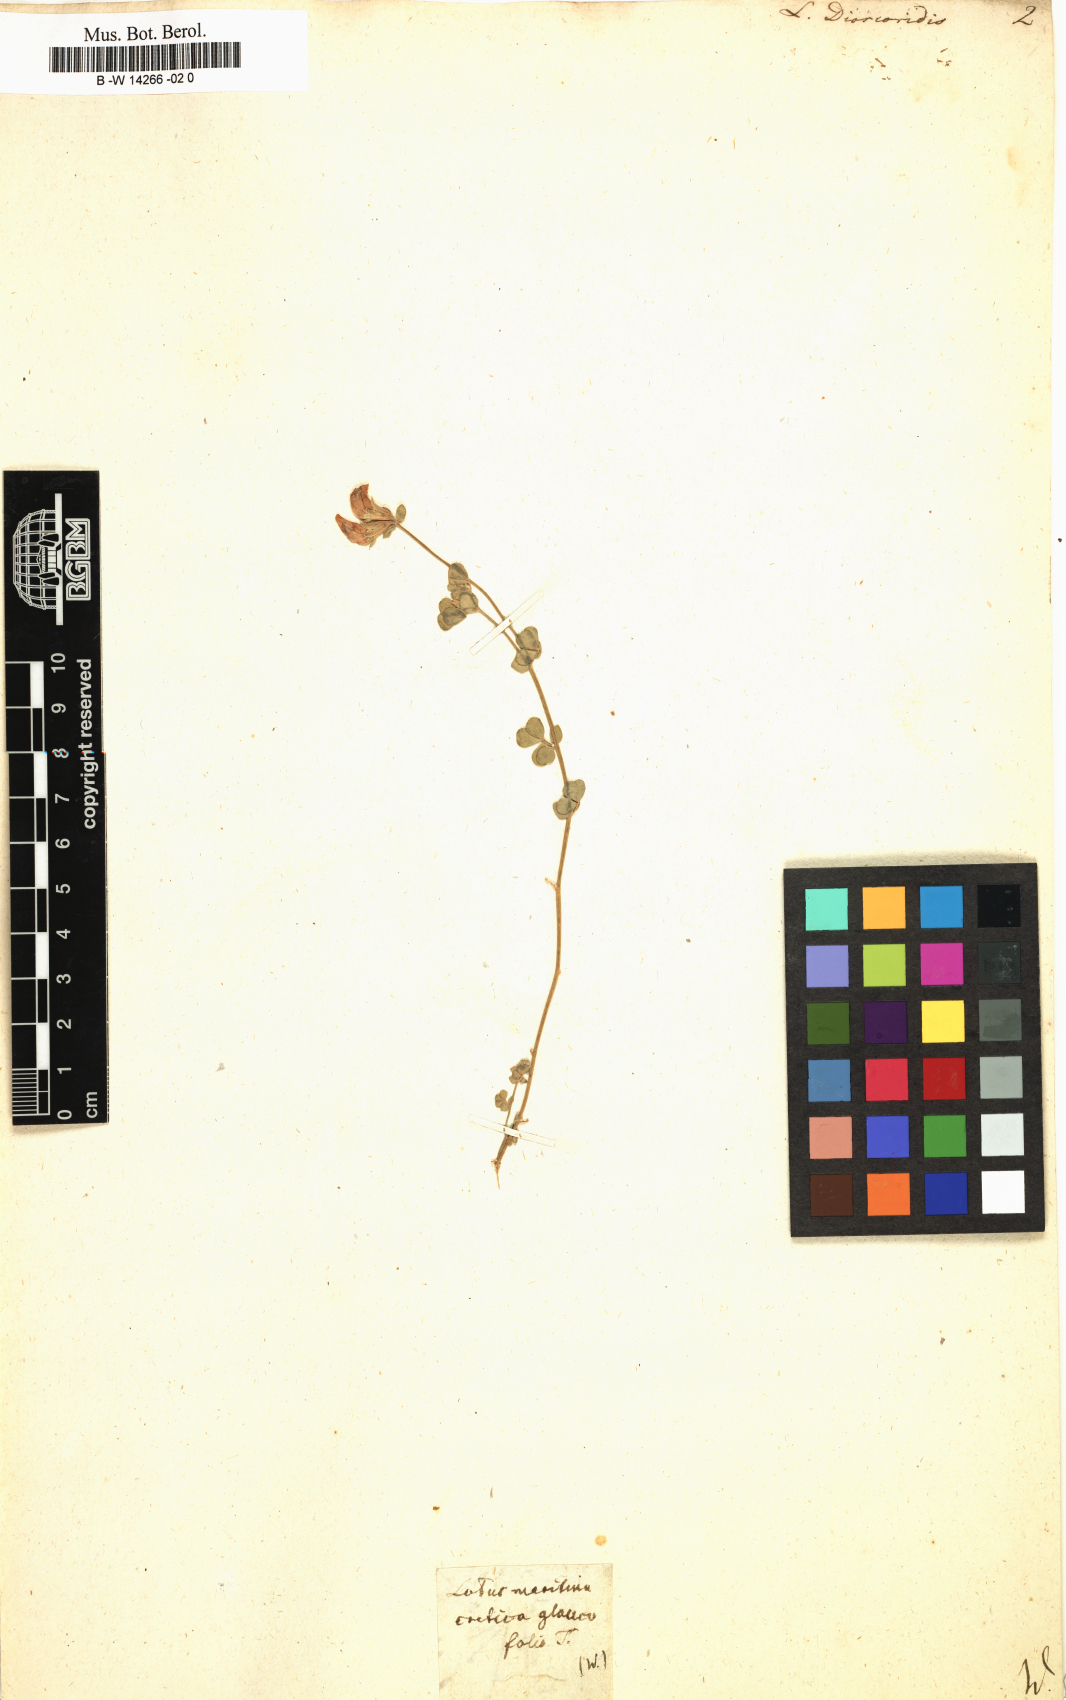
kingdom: Plantae
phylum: Tracheophyta
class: Magnoliopsida
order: Fabales
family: Fabaceae
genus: Lotus
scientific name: Lotus peregrinus
